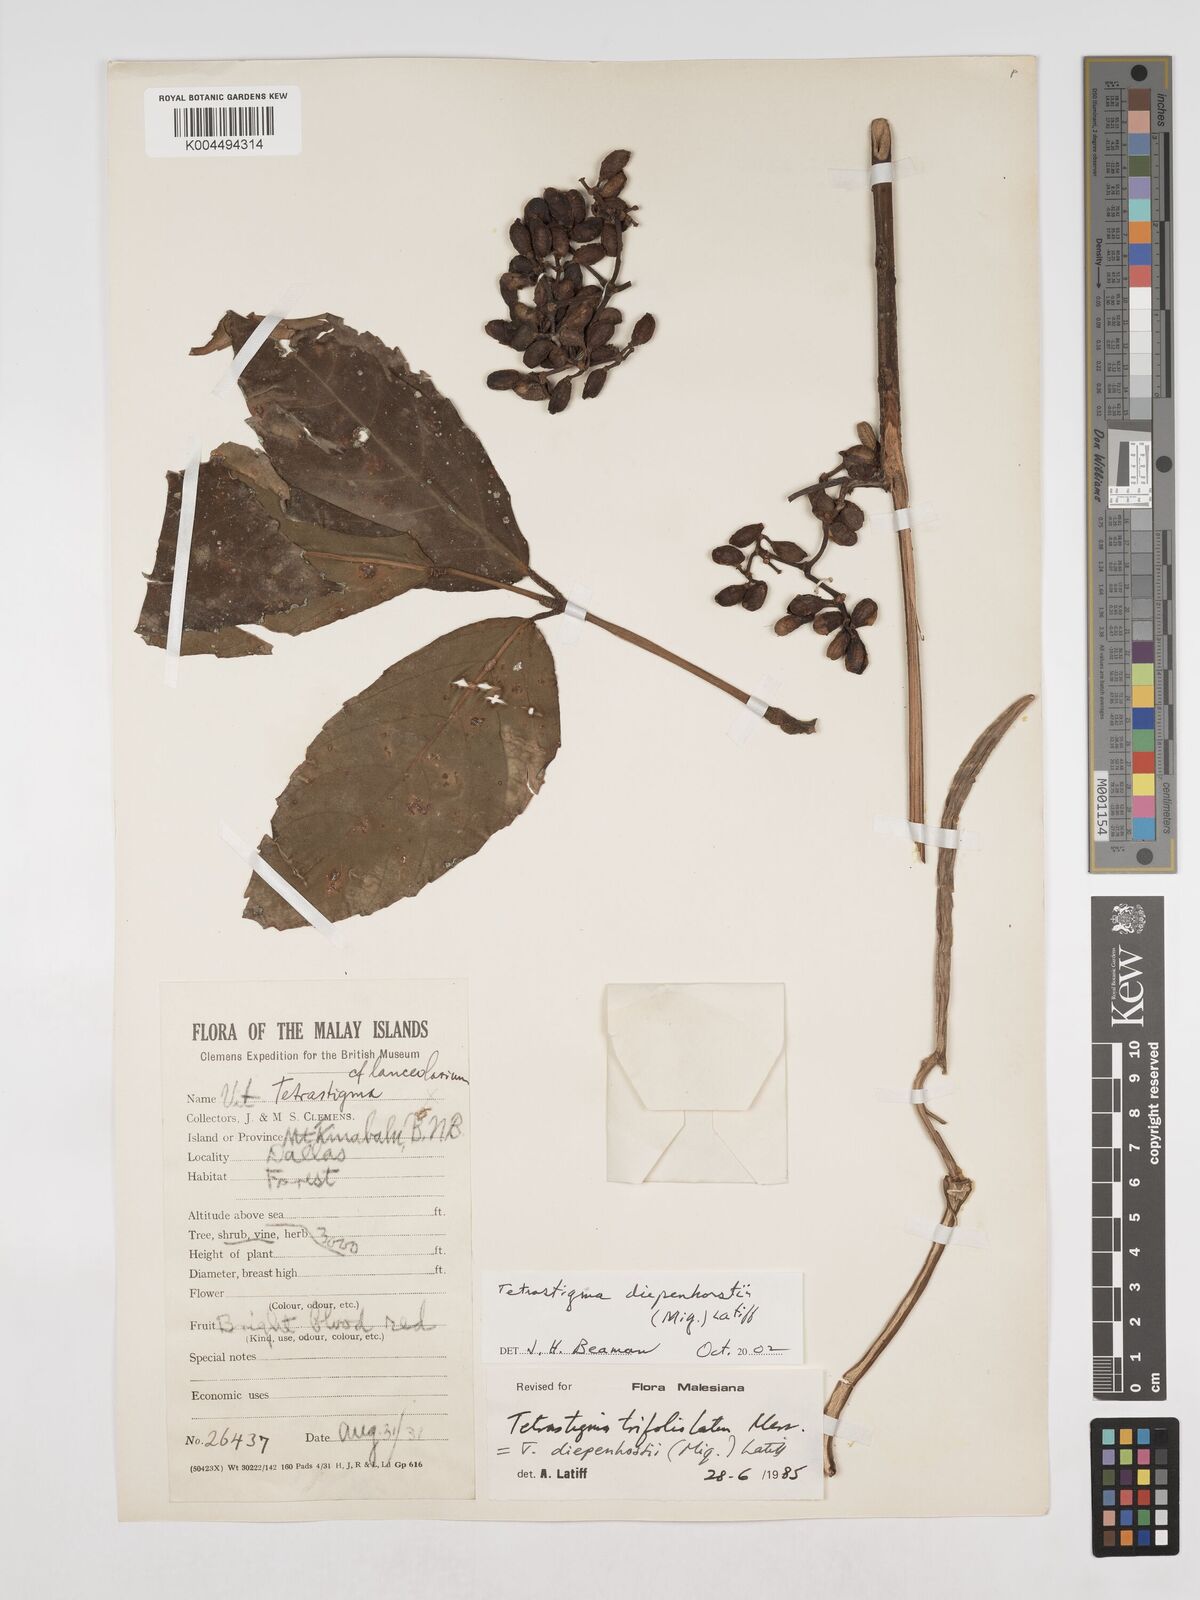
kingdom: Plantae
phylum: Tracheophyta
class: Magnoliopsida
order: Vitales
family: Vitaceae
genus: Tetrastigma
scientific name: Tetrastigma diepenhorstii
